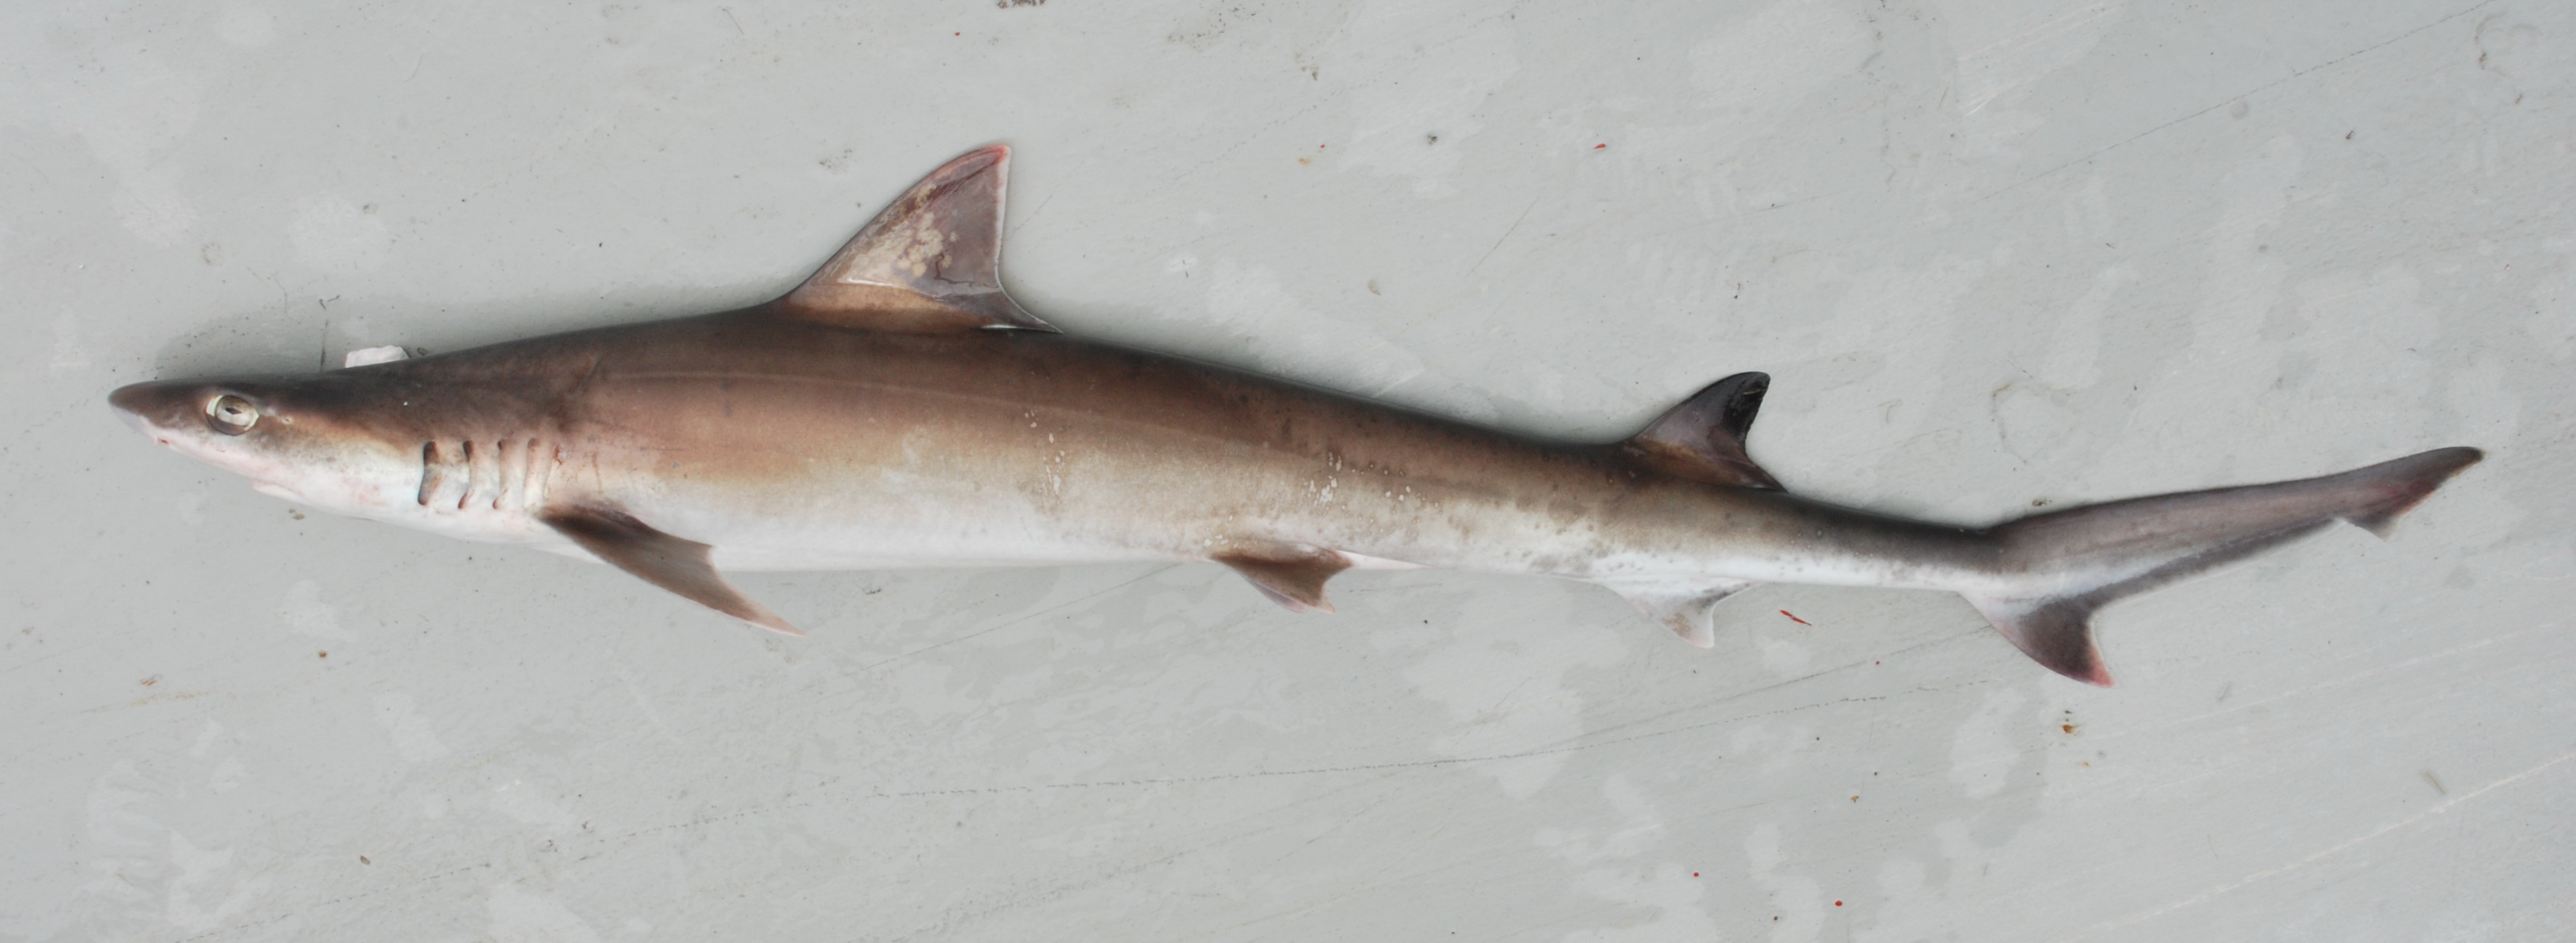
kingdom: Animalia
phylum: Chordata
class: Elasmobranchii
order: Carcharhiniformes
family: Hemigaleidae
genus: Paragaleus
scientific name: Paragaleus leucolomatus
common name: Whitetip weasel shark
